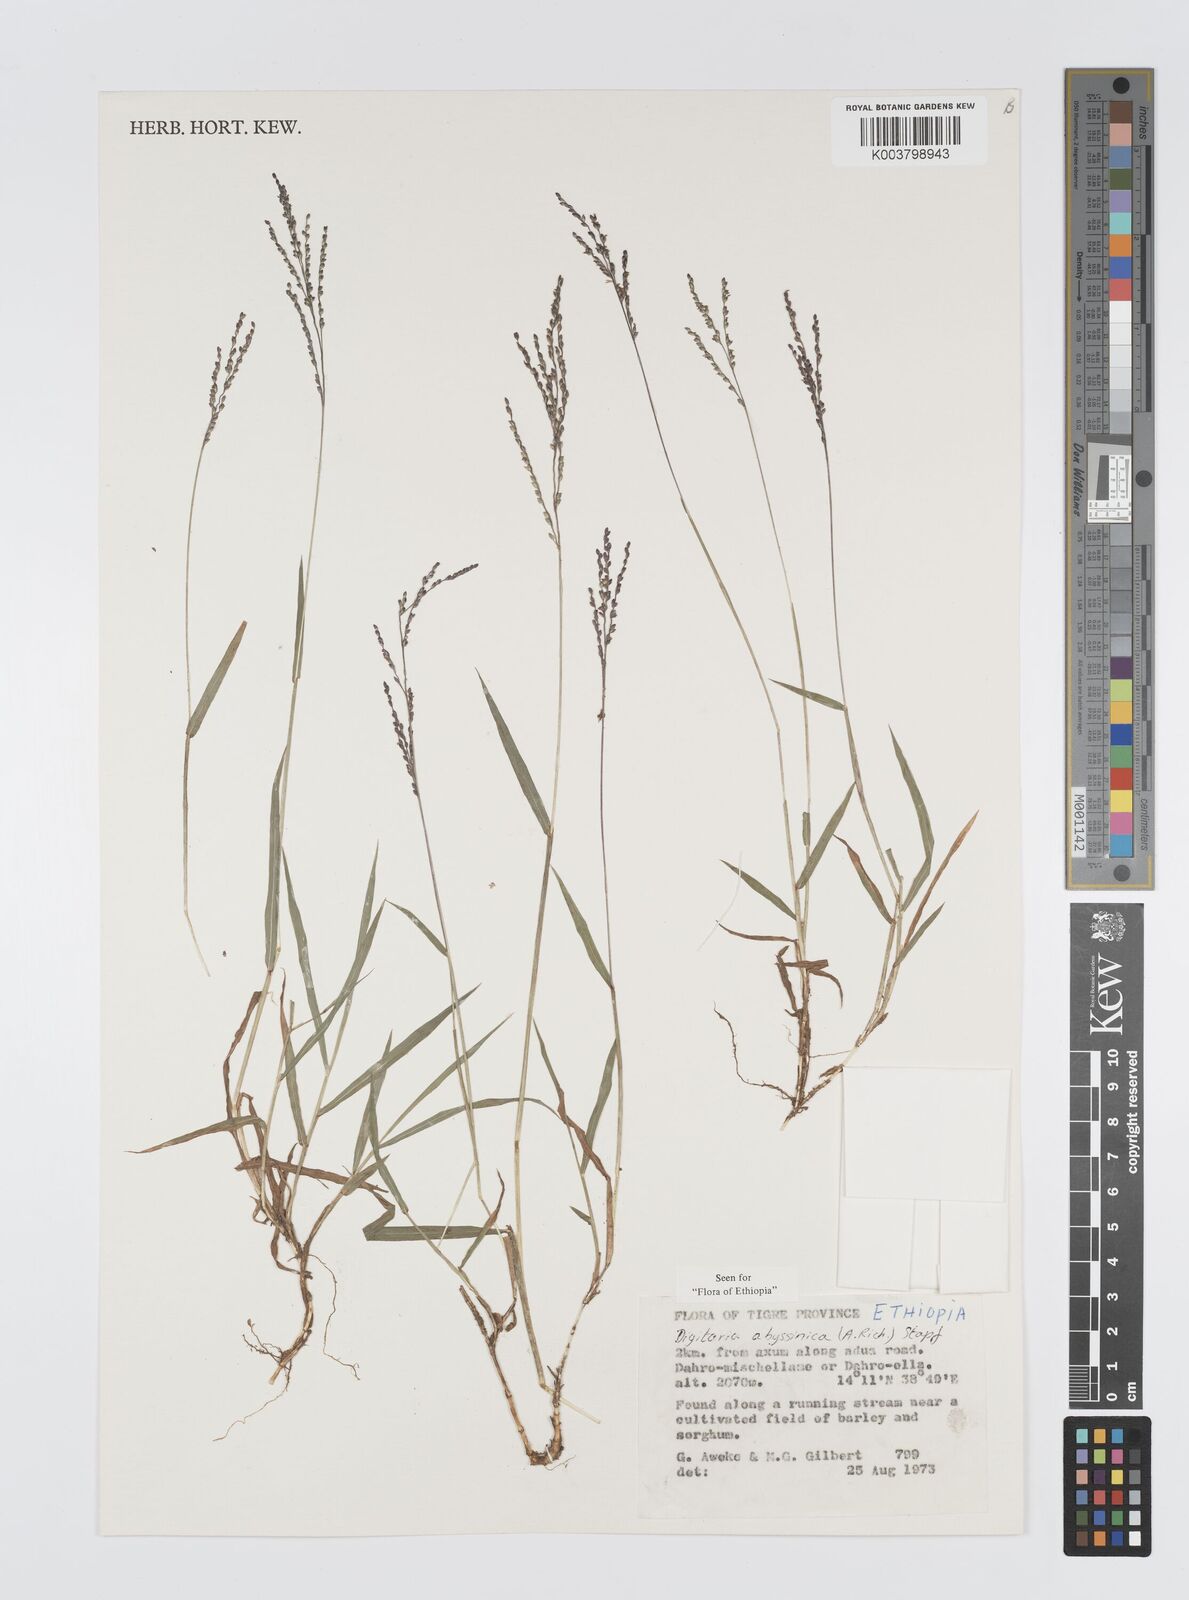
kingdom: Plantae
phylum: Tracheophyta
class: Liliopsida
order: Poales
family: Poaceae
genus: Digitaria
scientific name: Digitaria abyssinica
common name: African couchgrass
